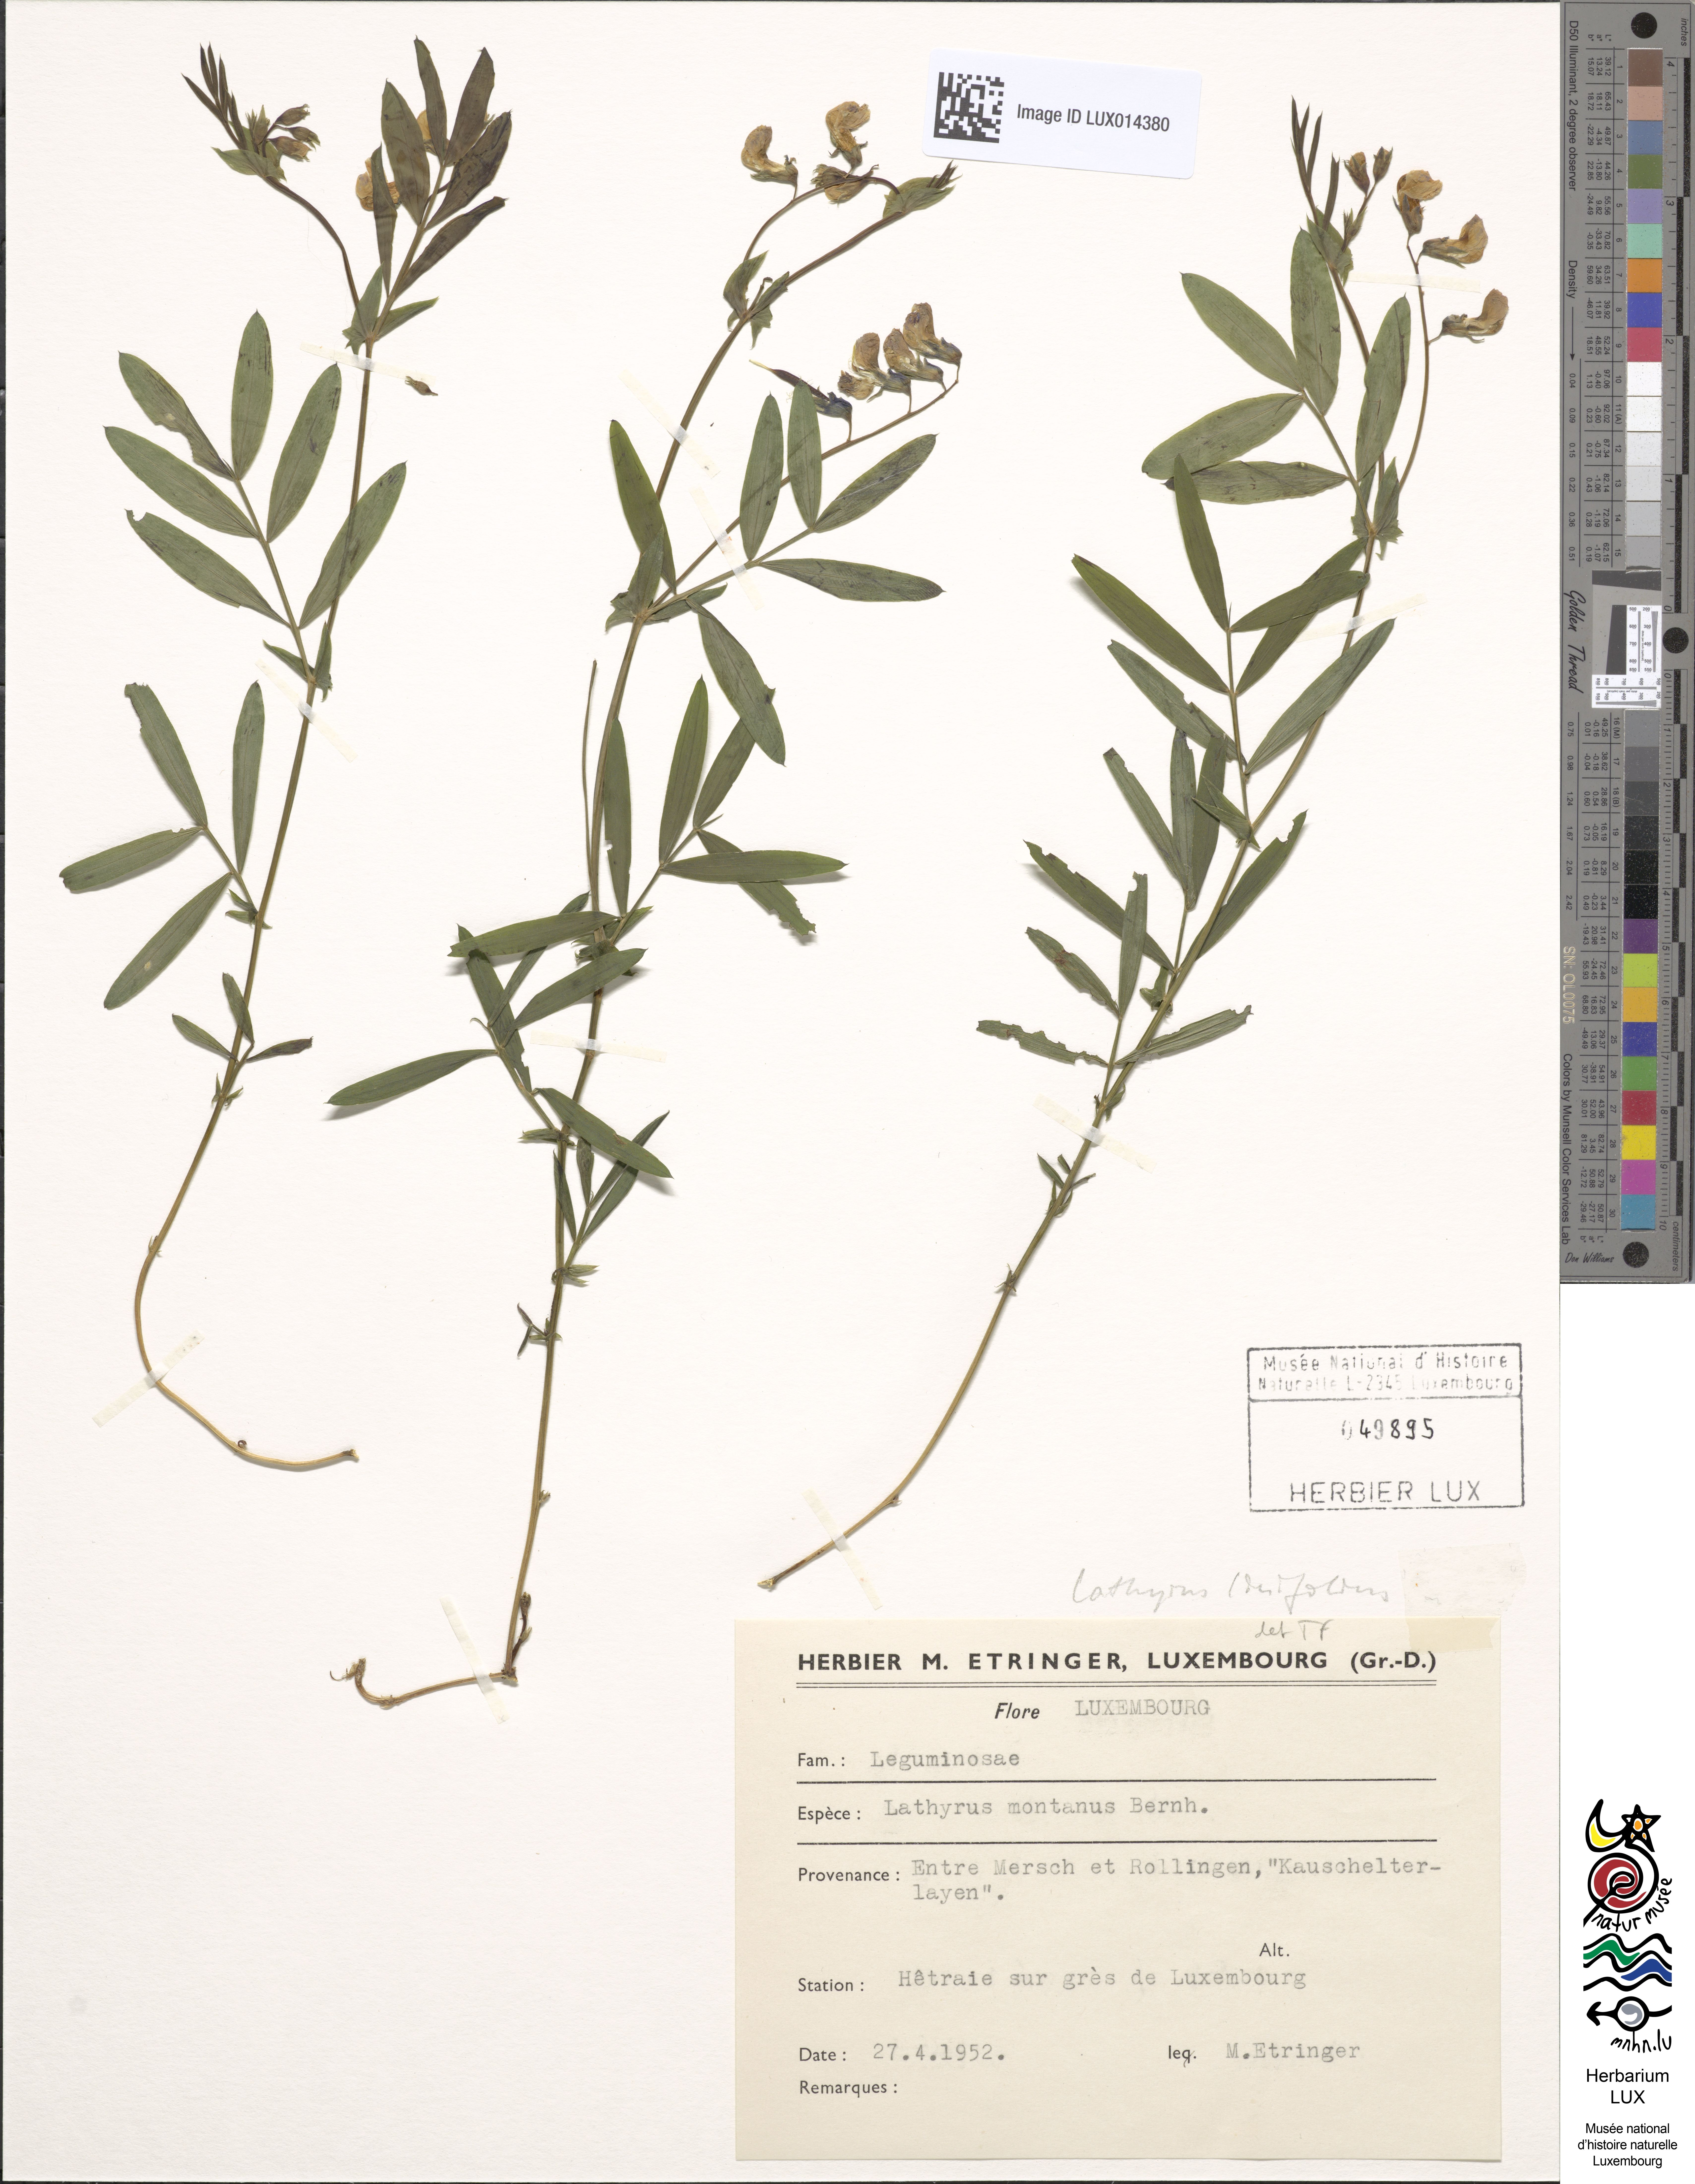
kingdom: Plantae
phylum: Tracheophyta
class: Magnoliopsida
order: Fabales
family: Fabaceae
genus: Lathyrus
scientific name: Lathyrus linifolius
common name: Bitter-vetch
